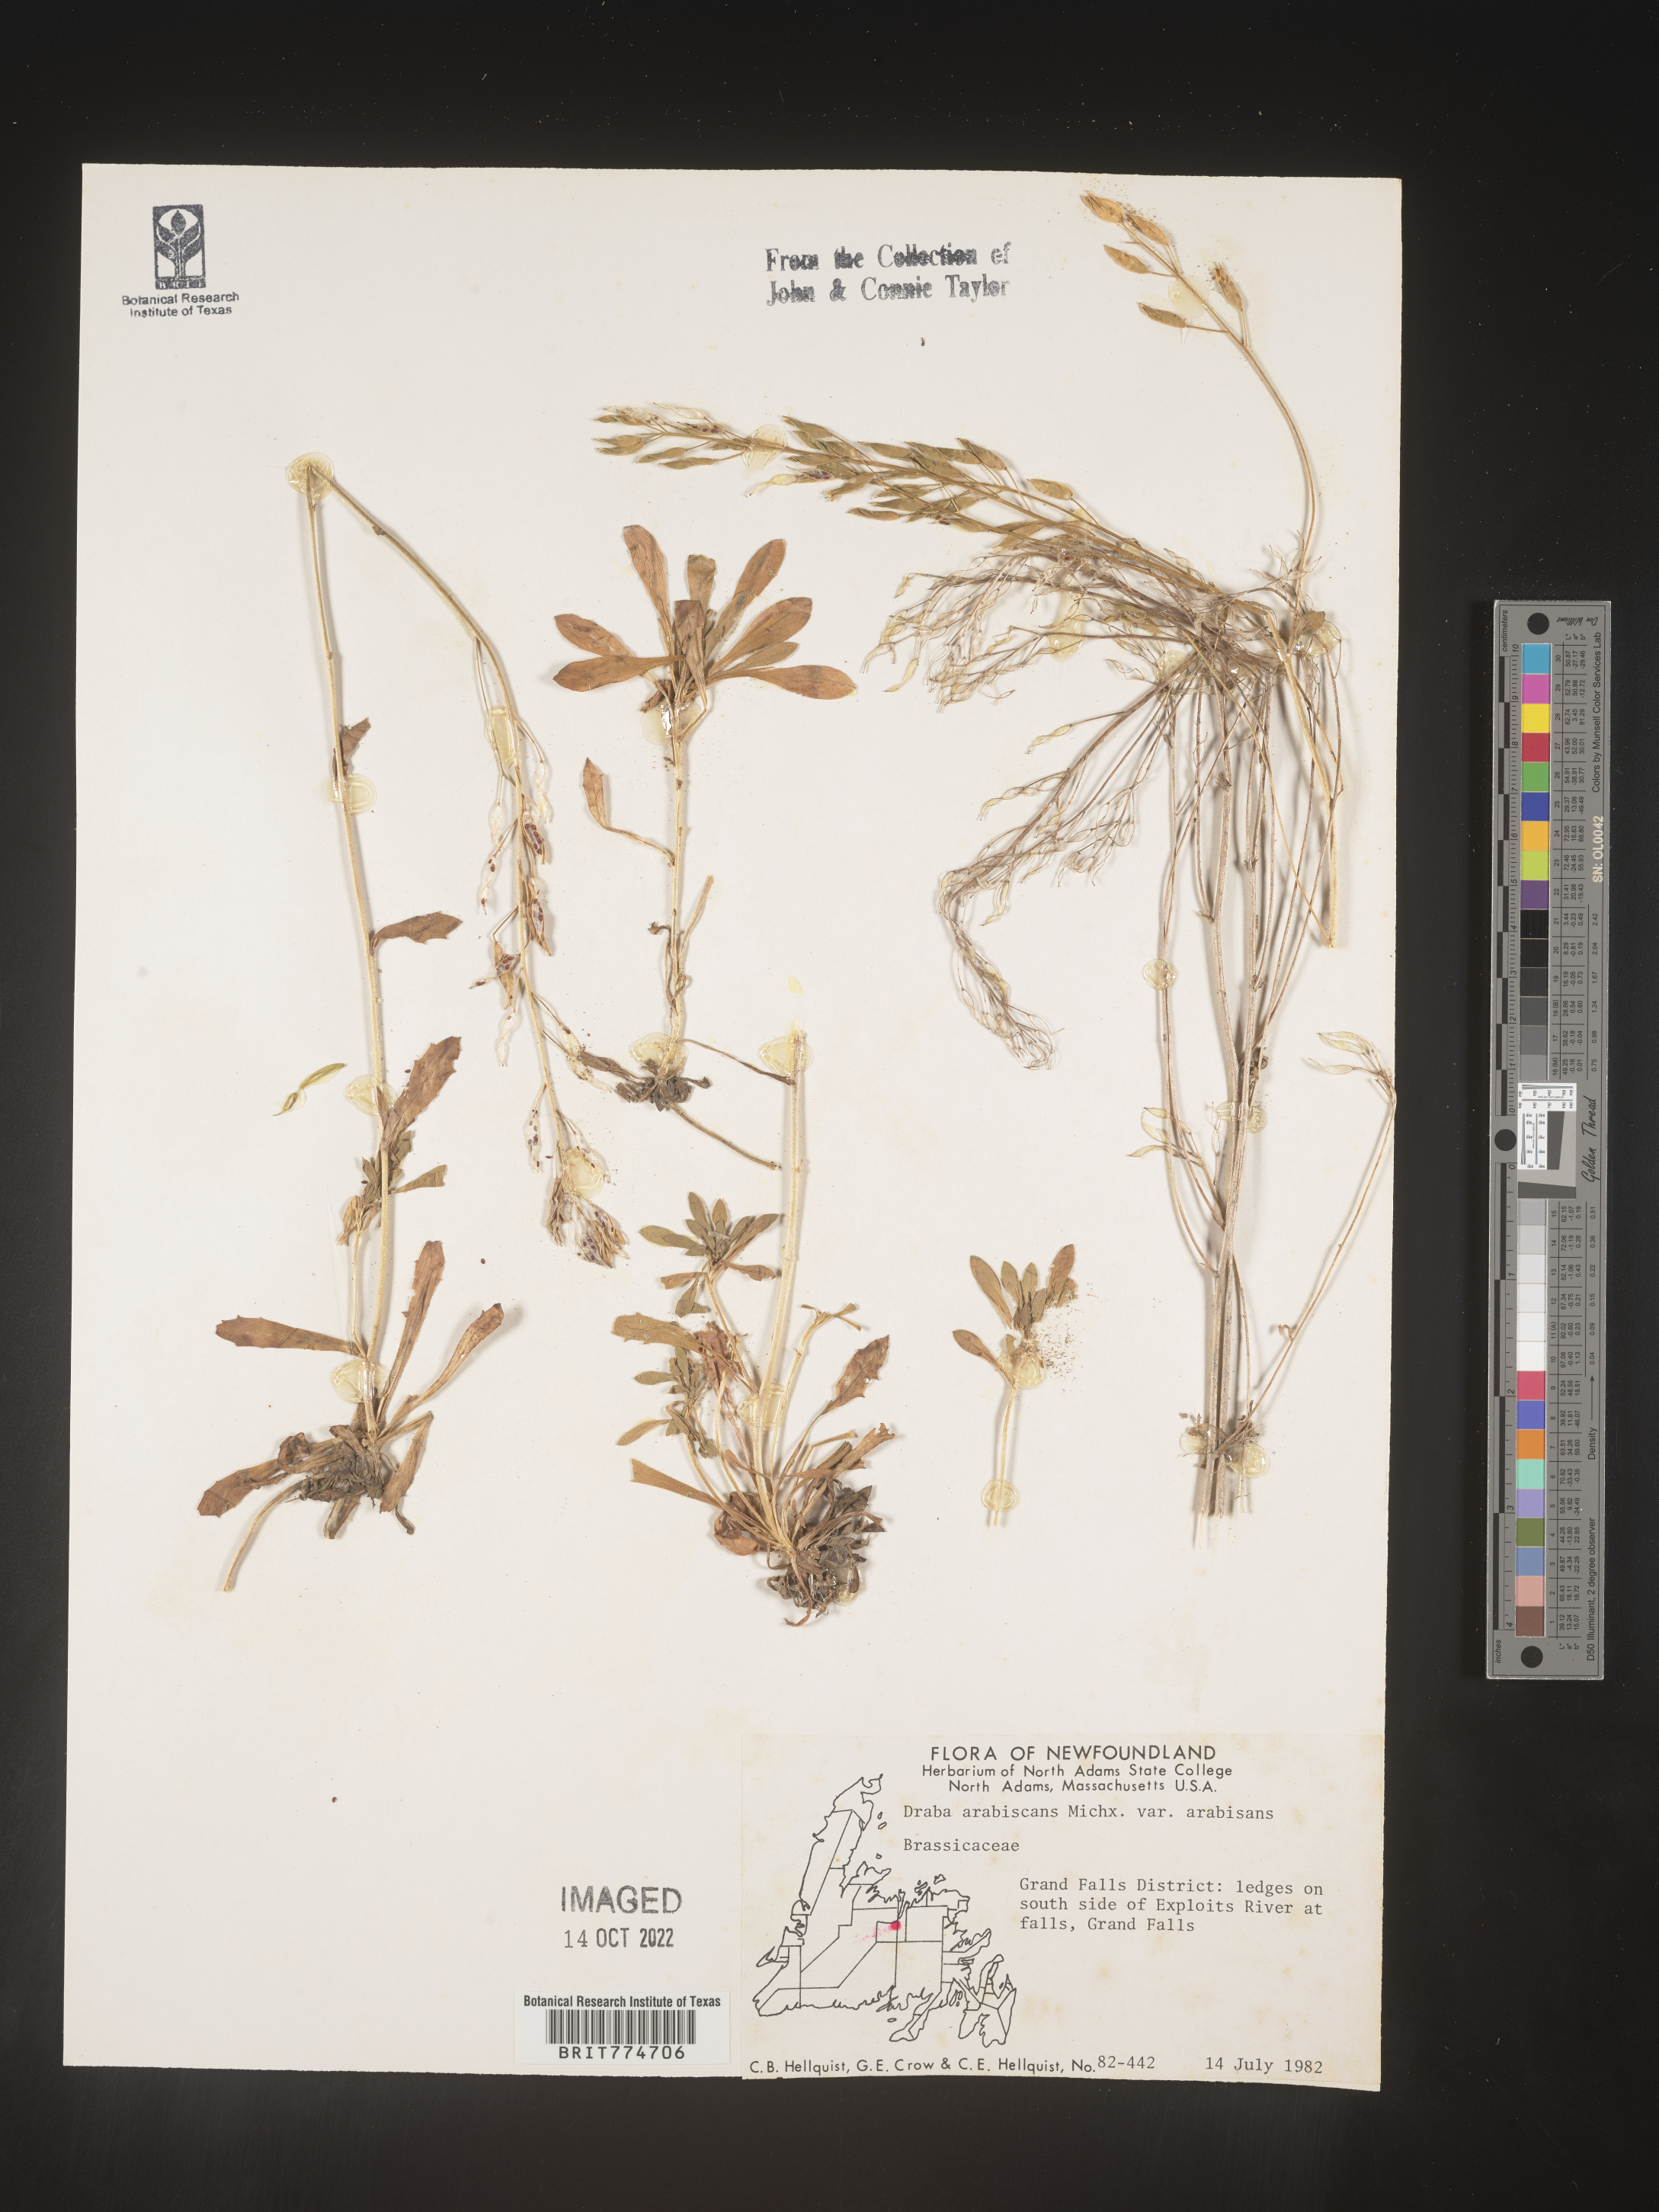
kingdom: Plantae
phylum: Tracheophyta
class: Magnoliopsida
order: Brassicales
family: Brassicaceae
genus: Draba
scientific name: Draba
